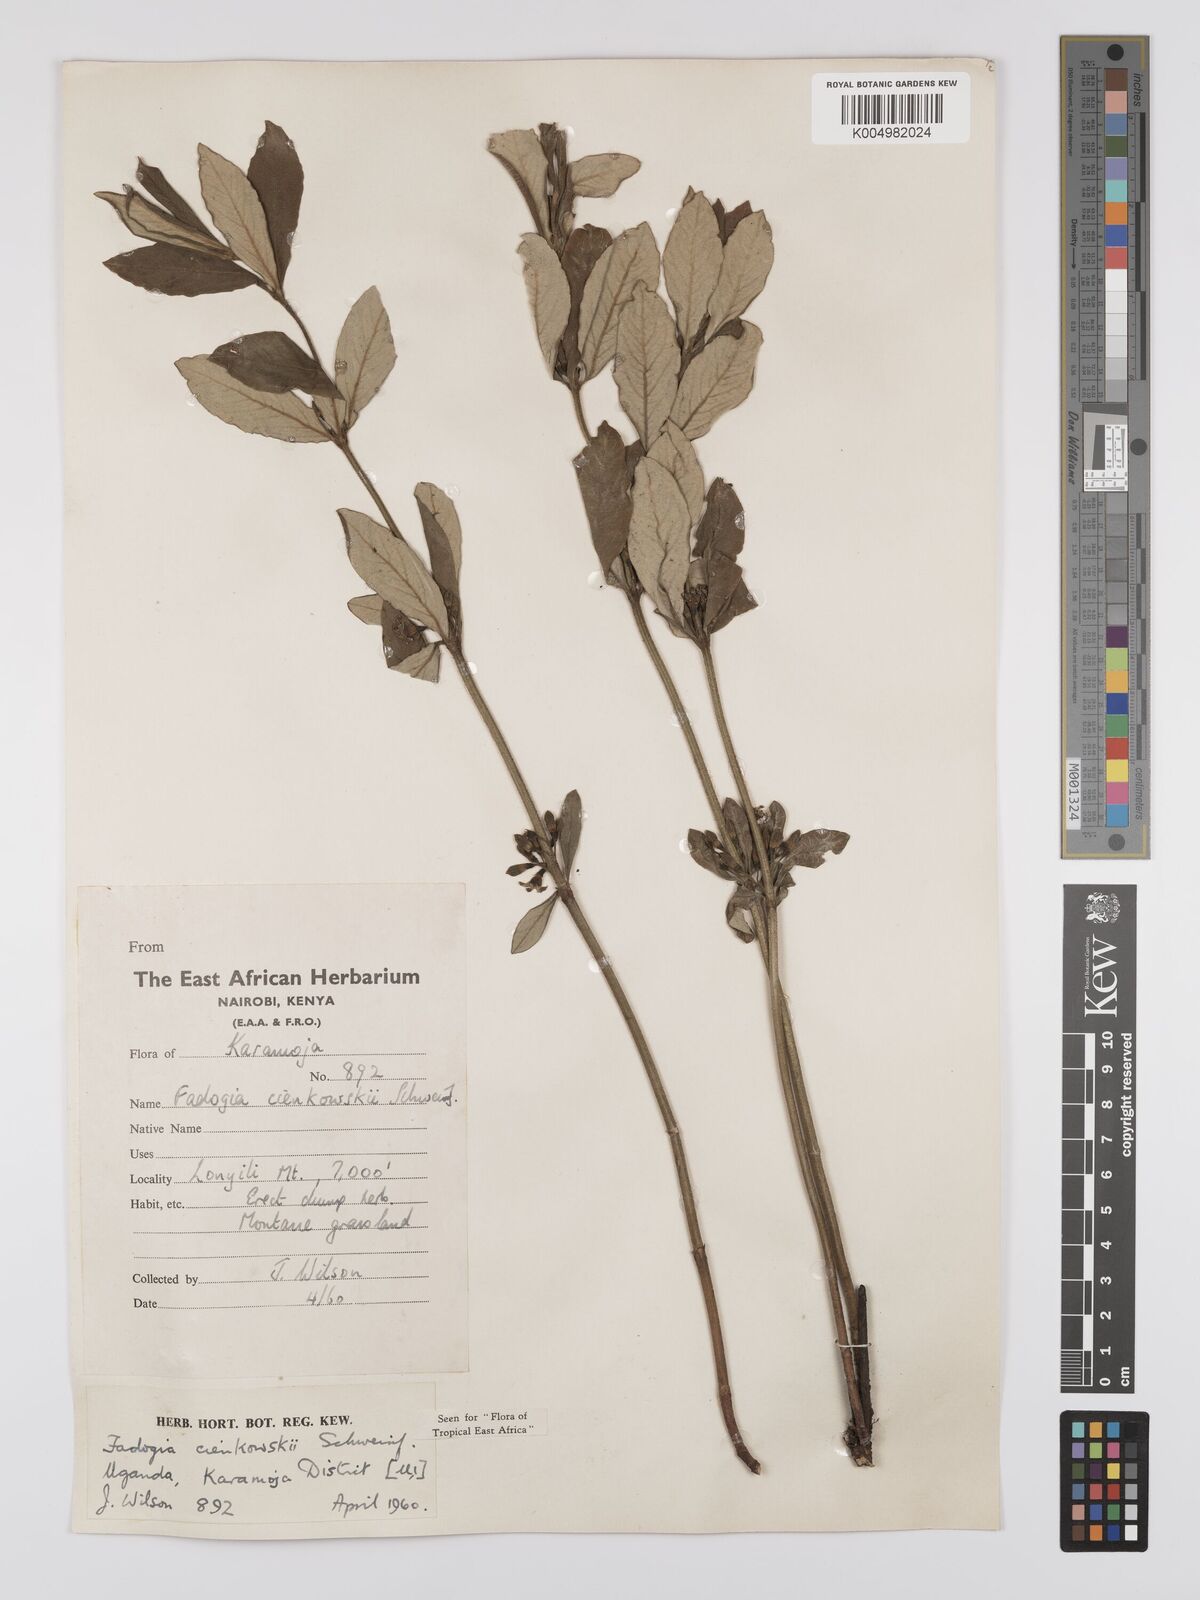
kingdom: Plantae
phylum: Tracheophyta
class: Magnoliopsida
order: Gentianales
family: Rubiaceae
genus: Fadogia
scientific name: Fadogia cienkowskii
